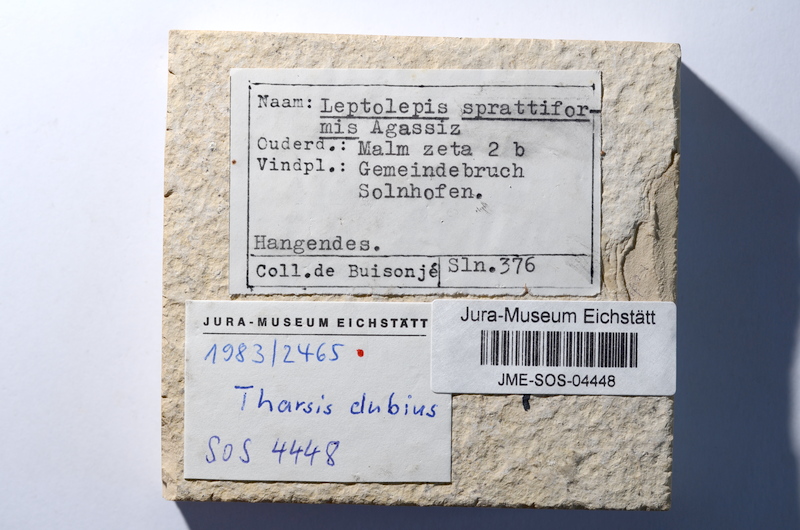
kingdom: Animalia
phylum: Chordata
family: Ascalaboidae
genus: Tharsis
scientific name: Tharsis dubius
